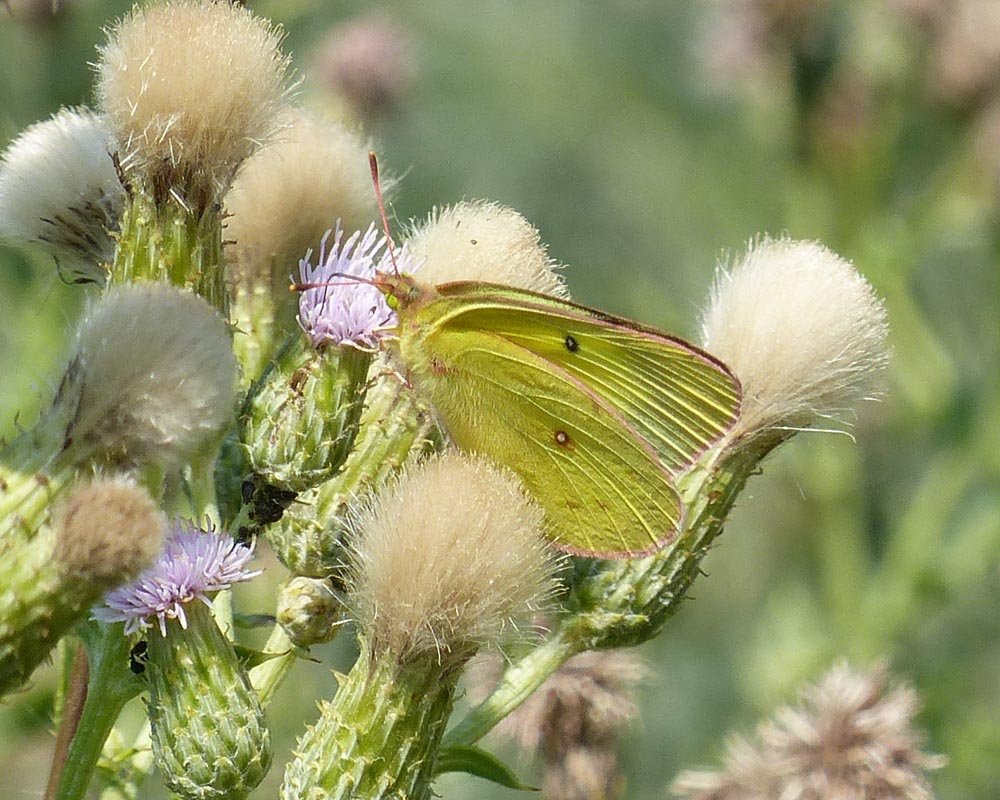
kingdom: Animalia
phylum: Arthropoda
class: Insecta
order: Lepidoptera
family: Pieridae
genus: Colias
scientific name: Colias philodice
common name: Clouded Sulphur
